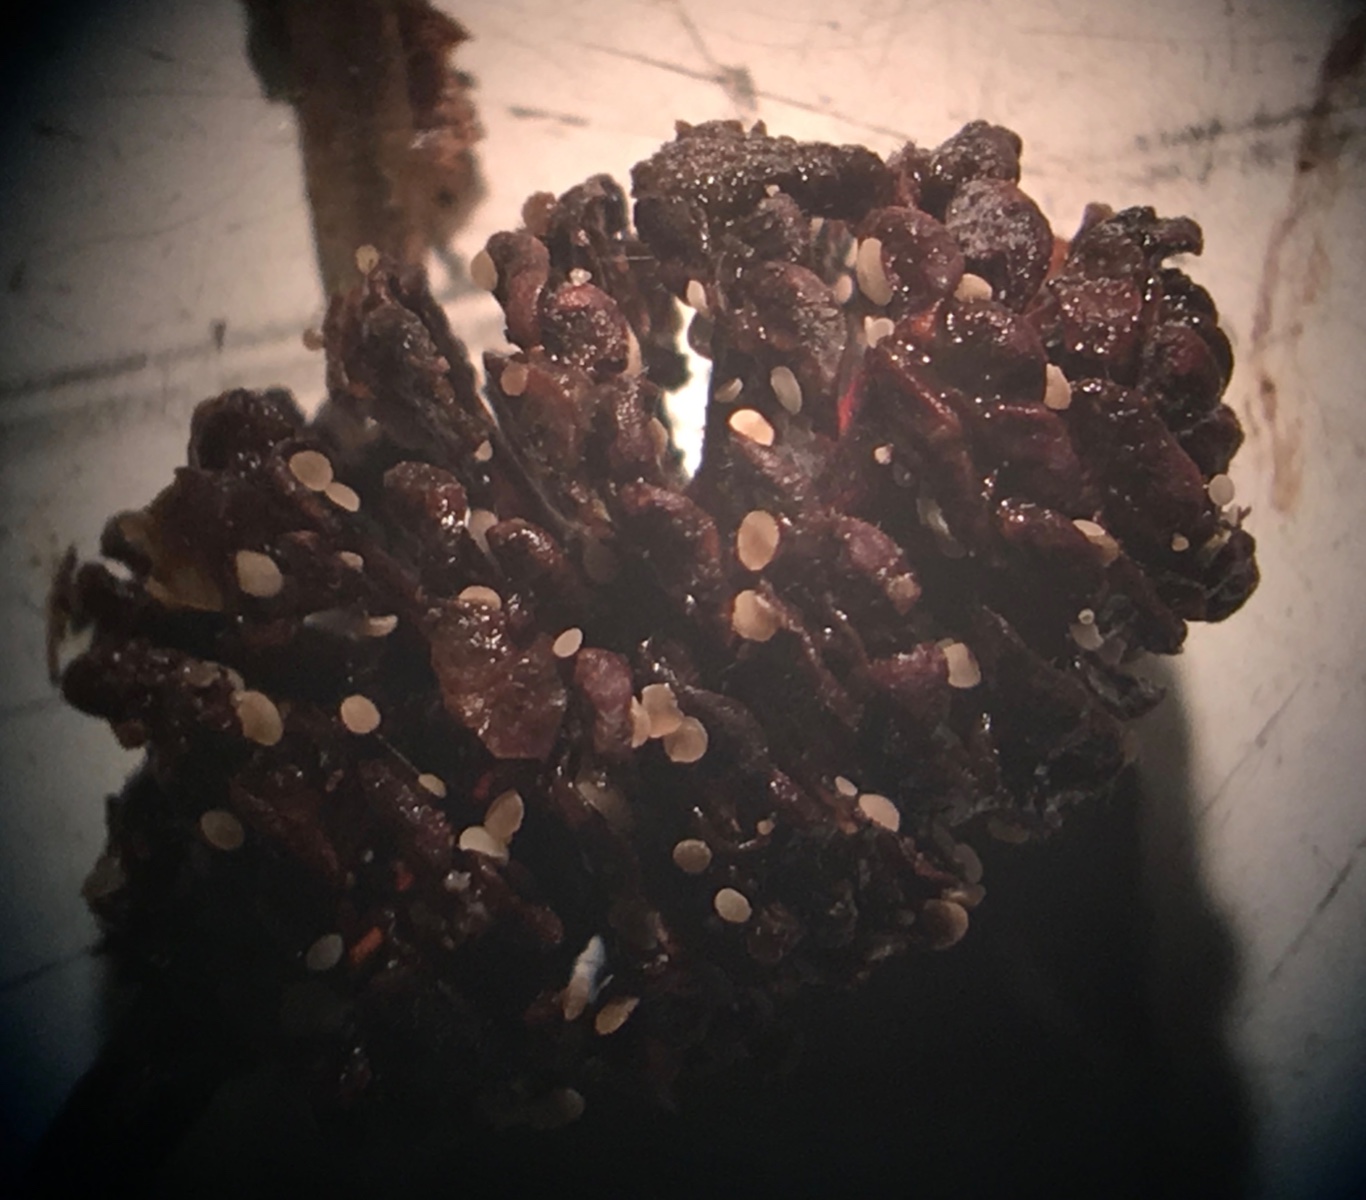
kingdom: Fungi
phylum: Ascomycota
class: Leotiomycetes
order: Helotiales
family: Pezizellaceae
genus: Calycina
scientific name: Calycina alniella
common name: ellekogle-stilkskive
